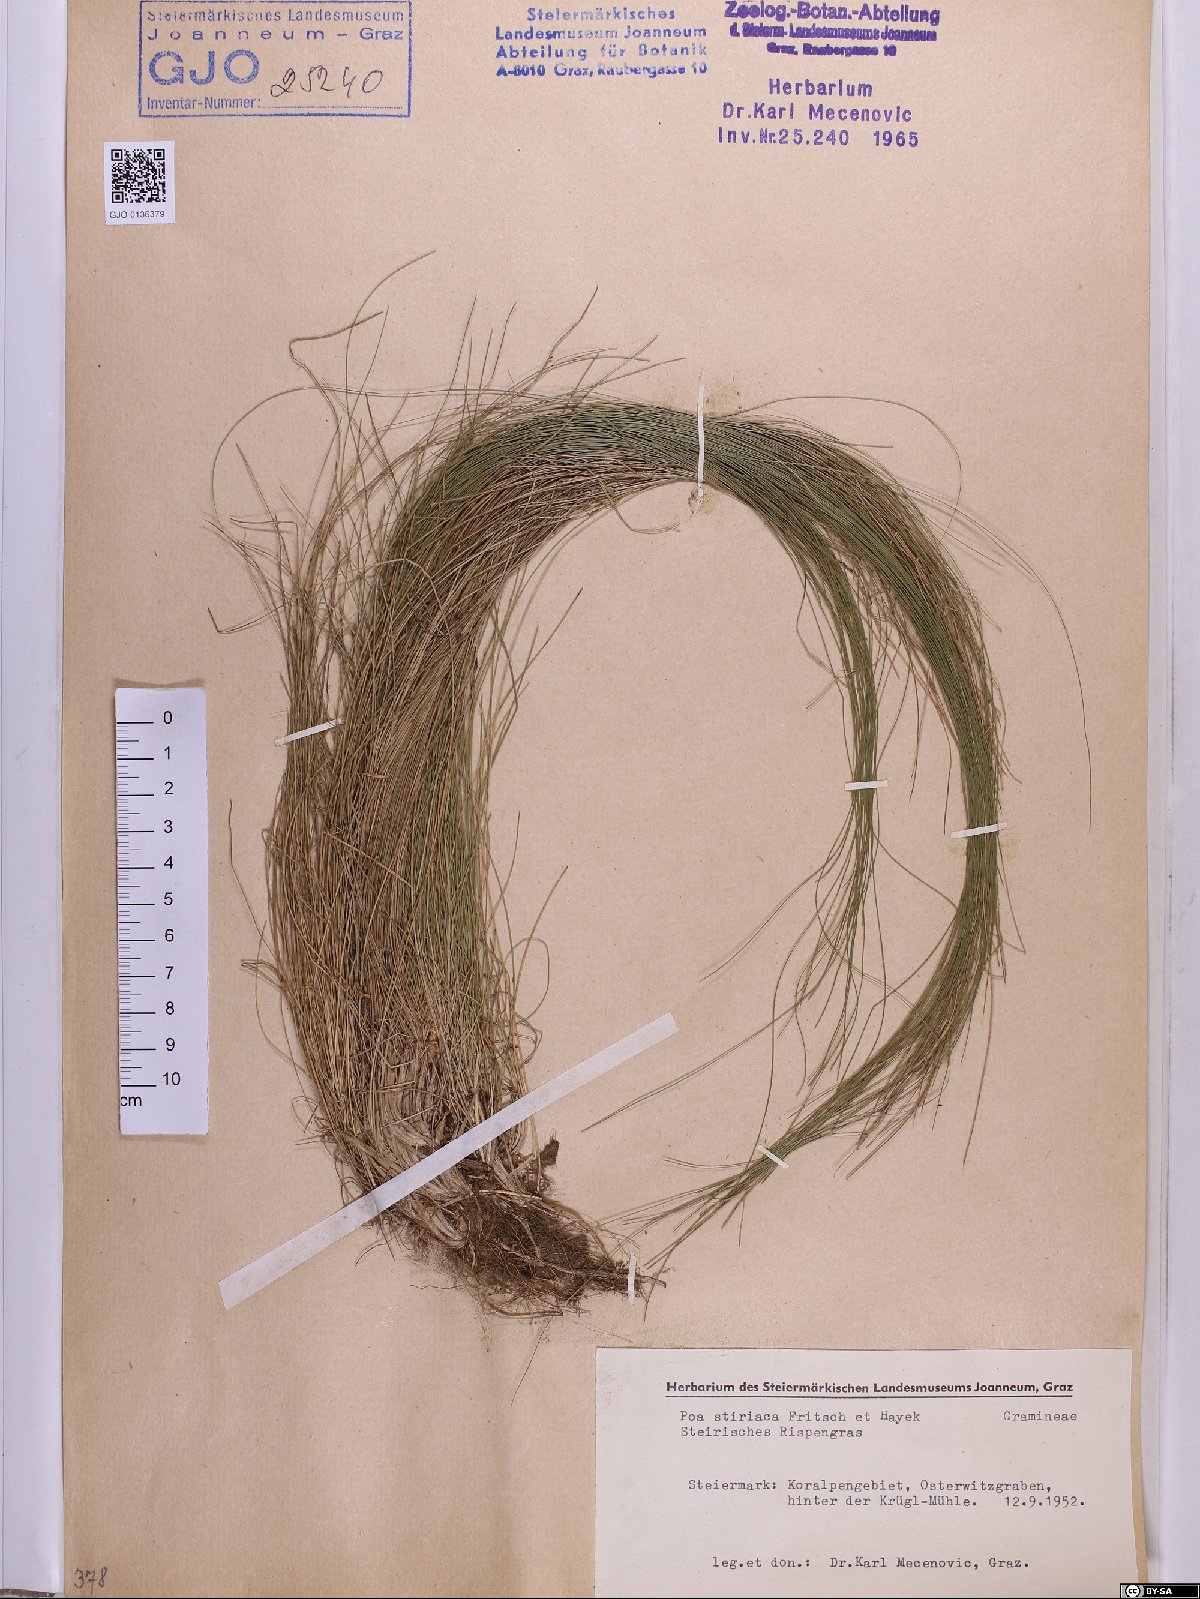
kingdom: Plantae
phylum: Tracheophyta
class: Liliopsida
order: Poales
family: Poaceae
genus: Poa
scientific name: Poa stiriaca
